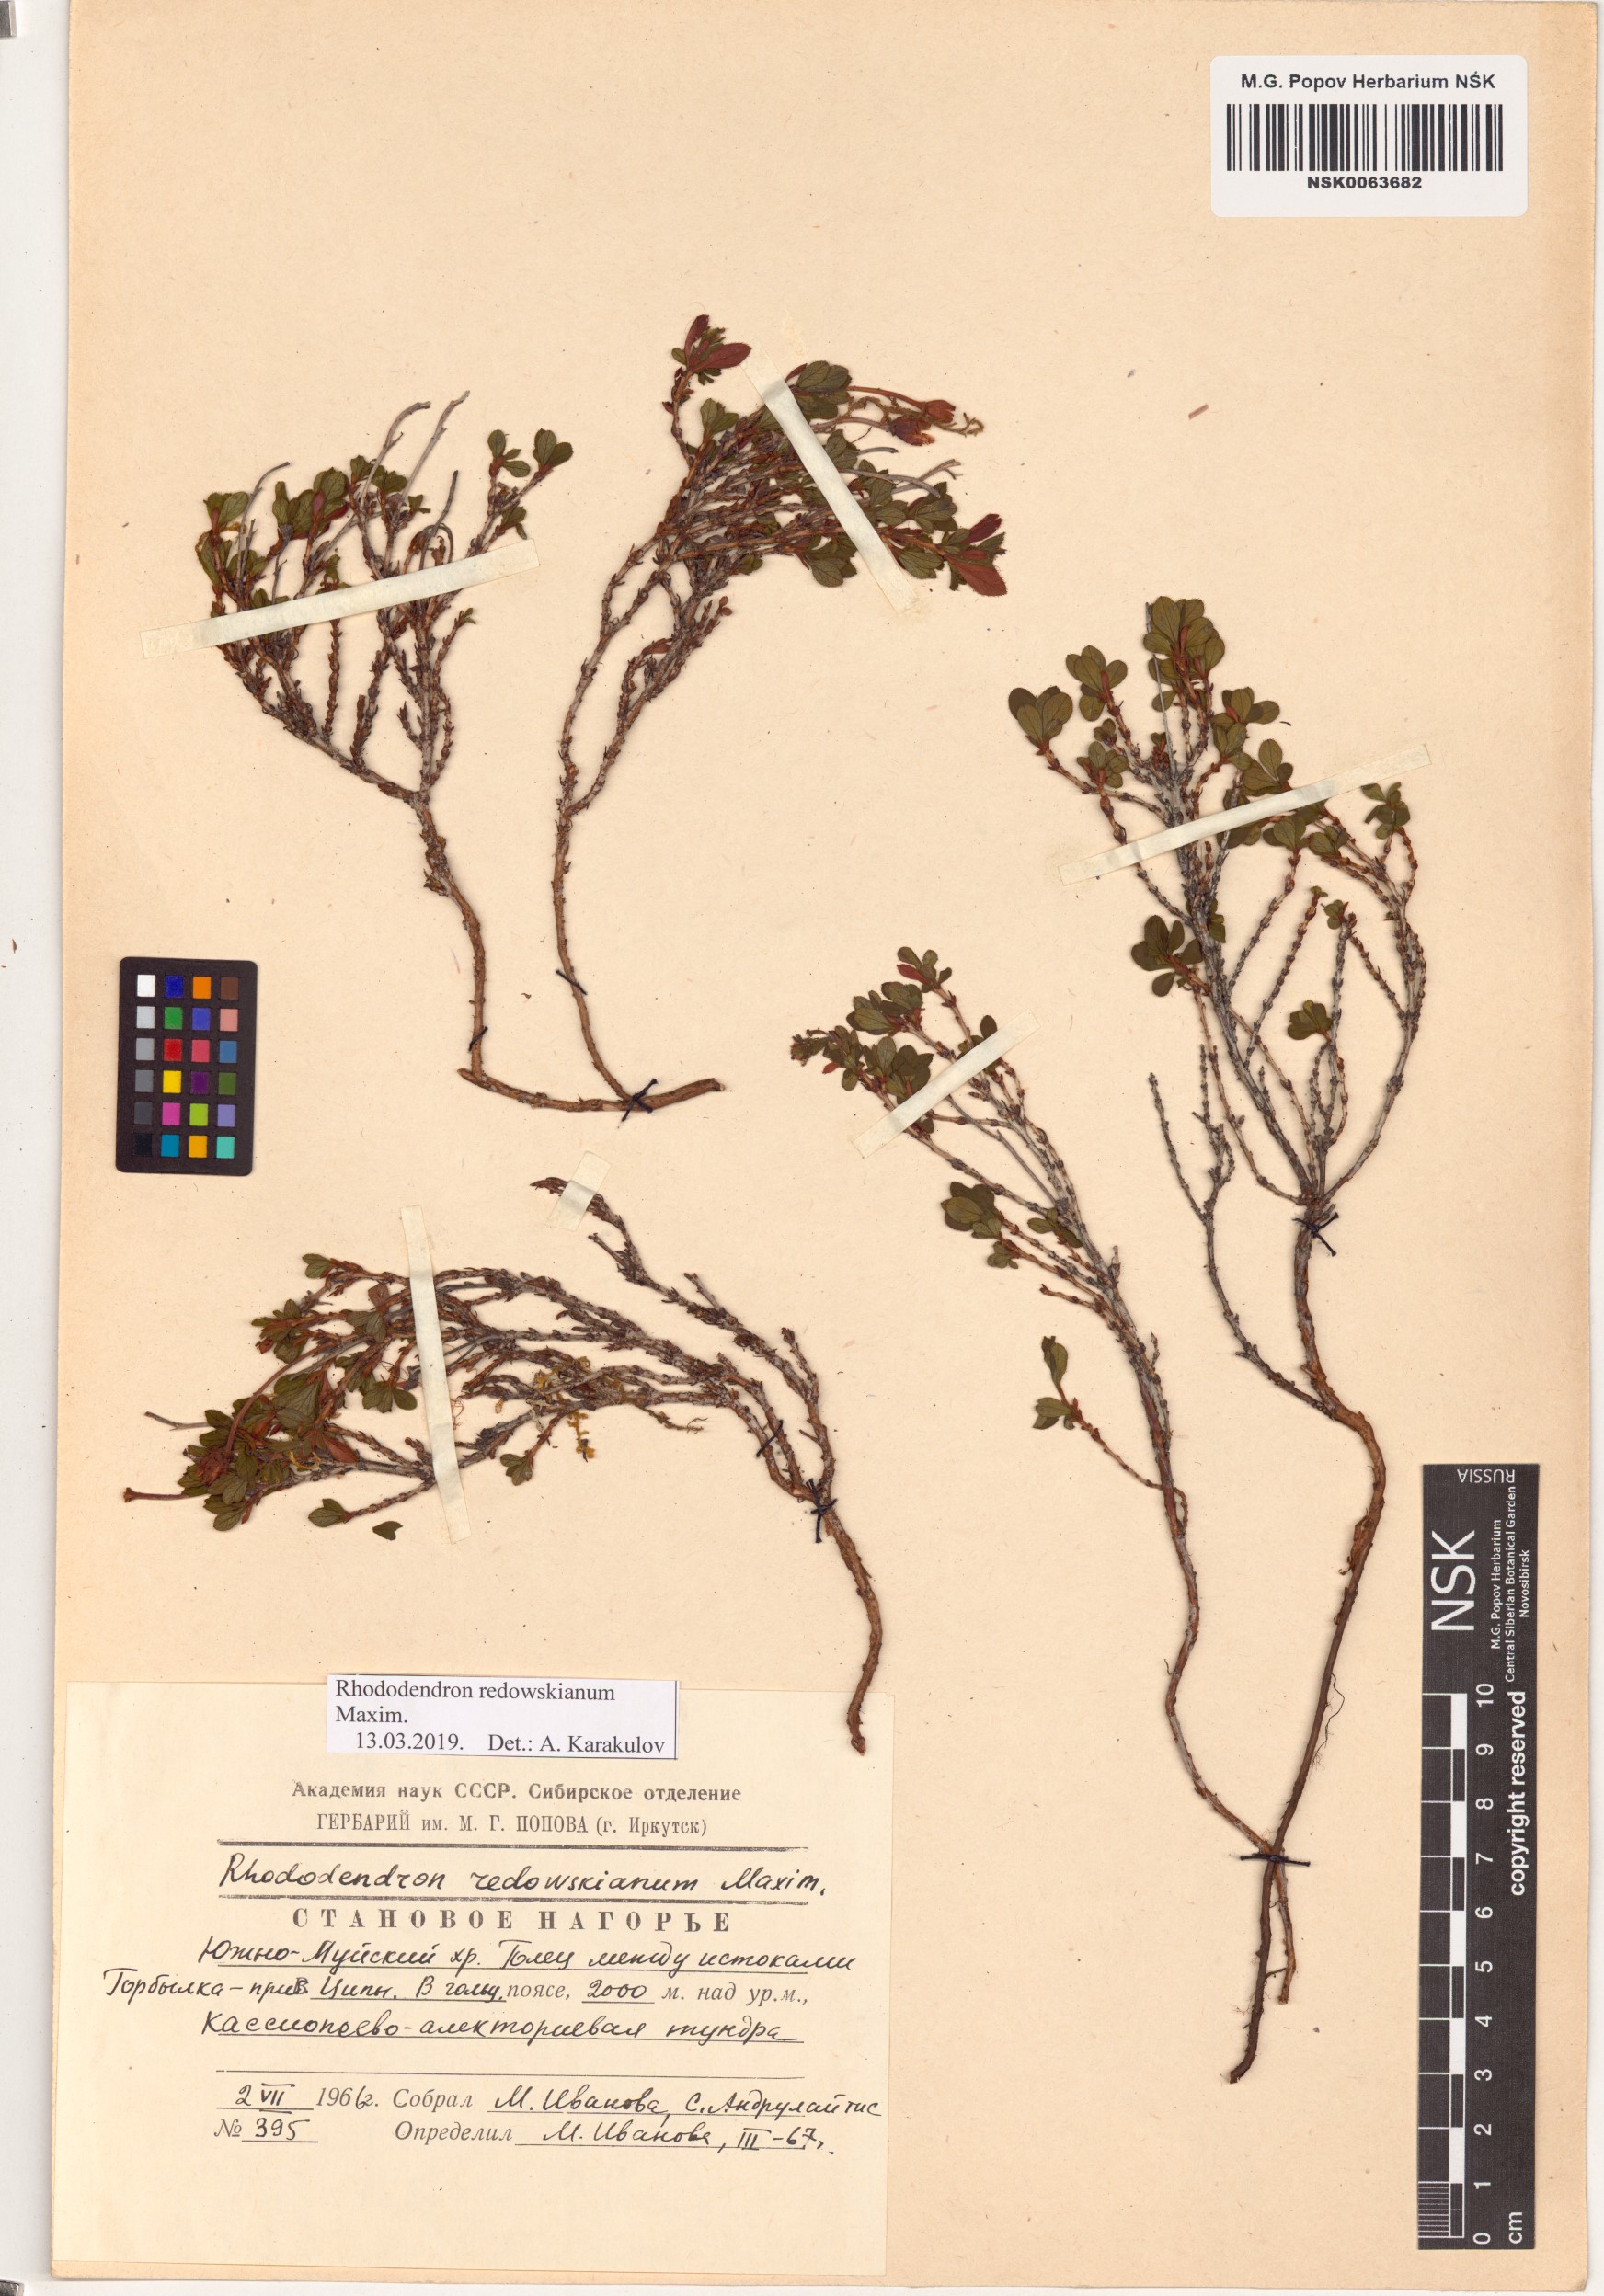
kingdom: Plantae
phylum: Tracheophyta
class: Magnoliopsida
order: Ericales
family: Ericaceae
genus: Rhododendron
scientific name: Rhododendron redowskianum
